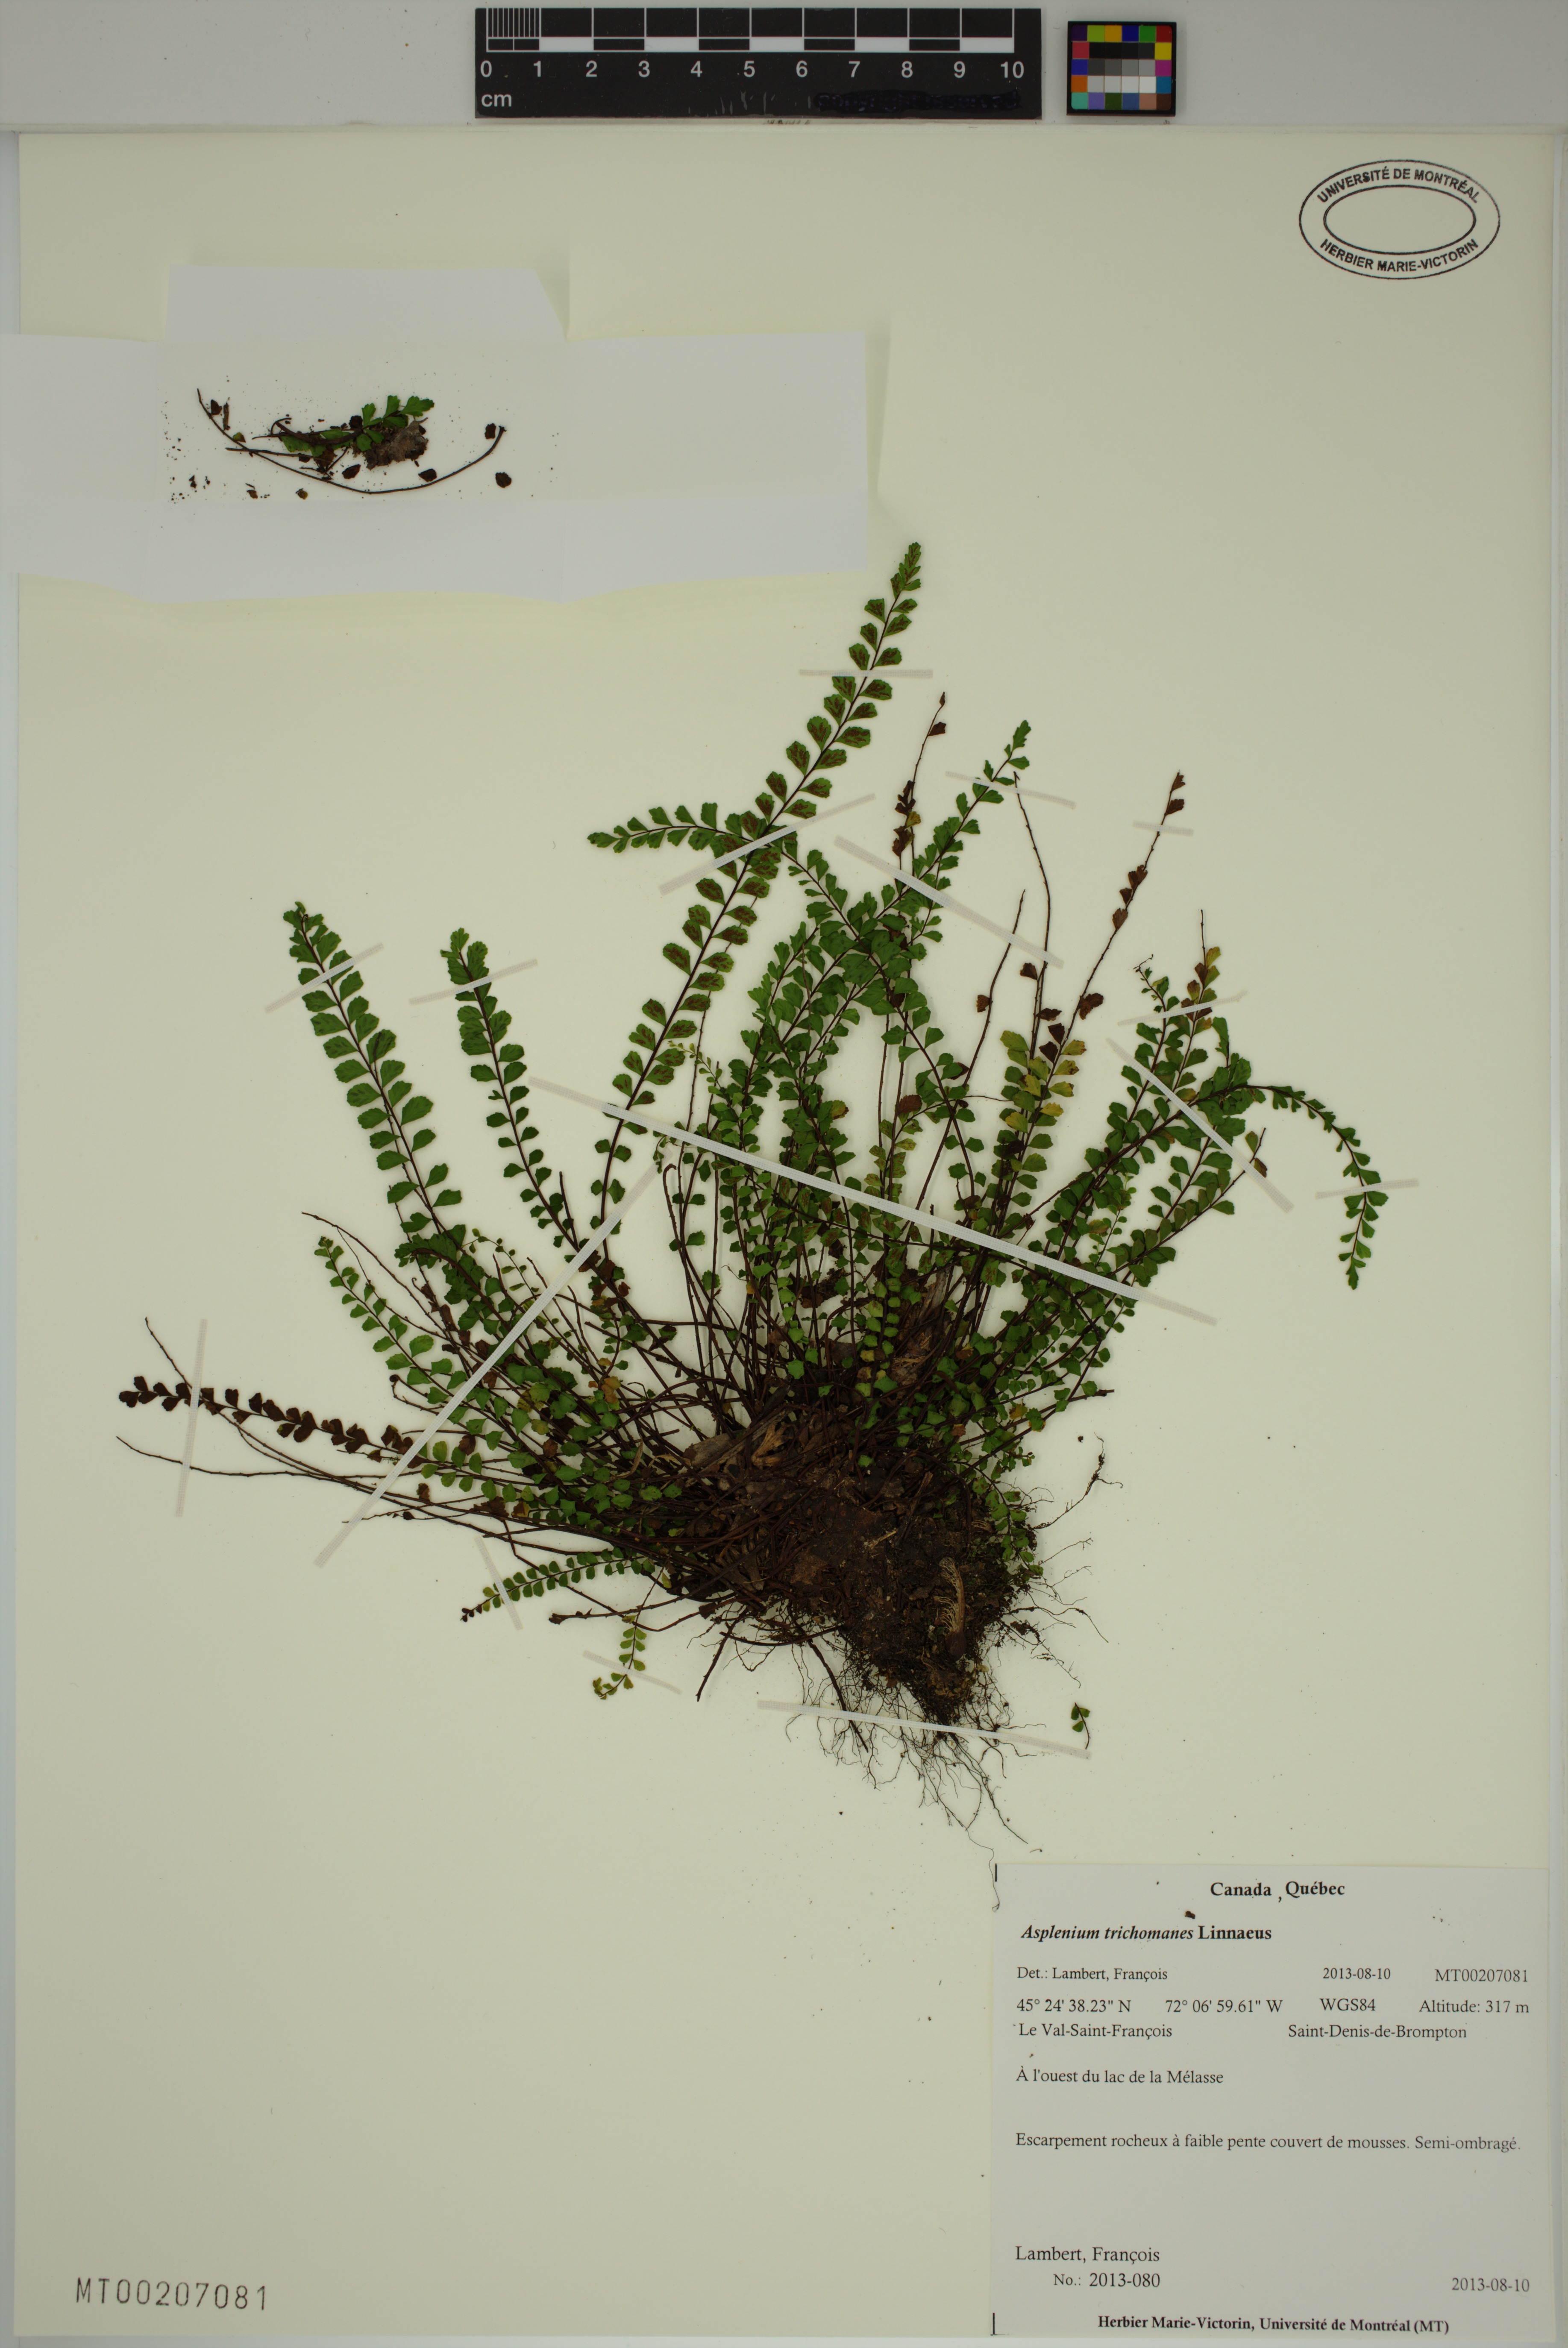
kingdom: Plantae
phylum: Tracheophyta
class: Polypodiopsida
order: Polypodiales
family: Aspleniaceae
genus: Asplenium
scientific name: Asplenium trichomanes
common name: Maidenhair spleenwort
